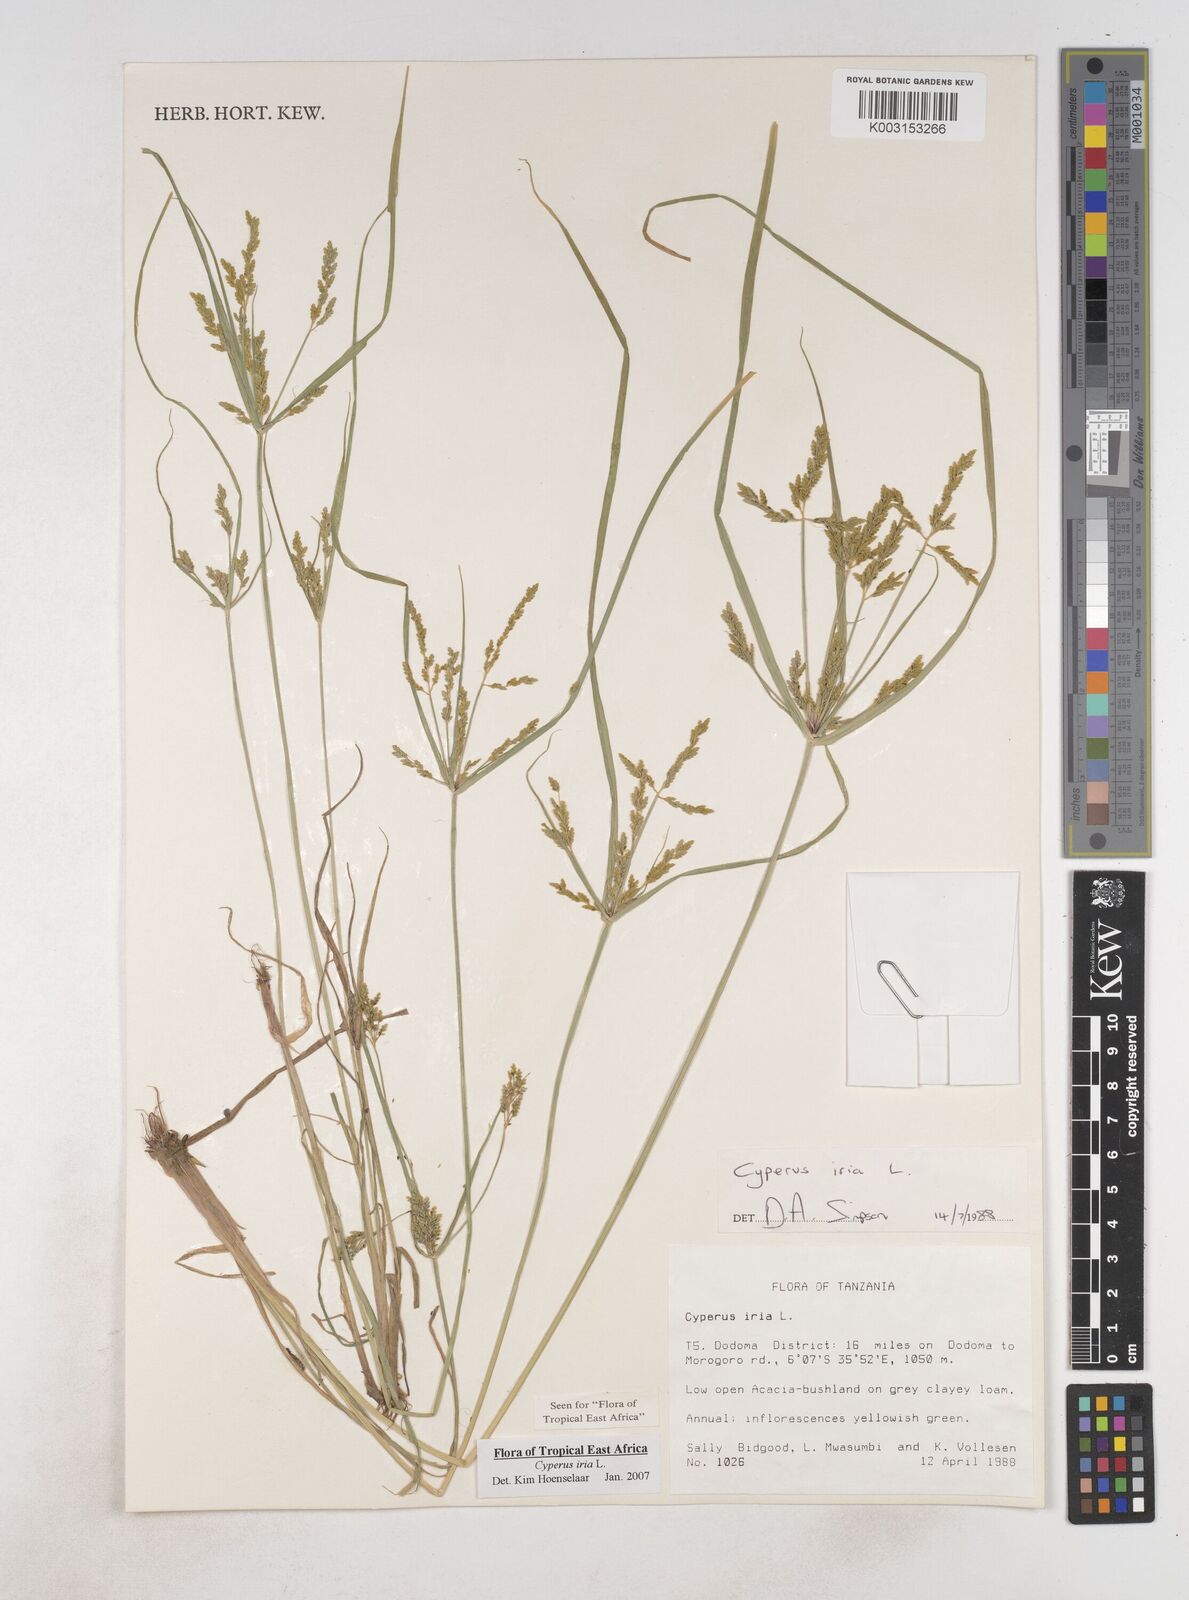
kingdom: Plantae
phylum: Tracheophyta
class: Liliopsida
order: Poales
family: Cyperaceae
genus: Cyperus
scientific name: Cyperus iria
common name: Ricefield flatsedge
